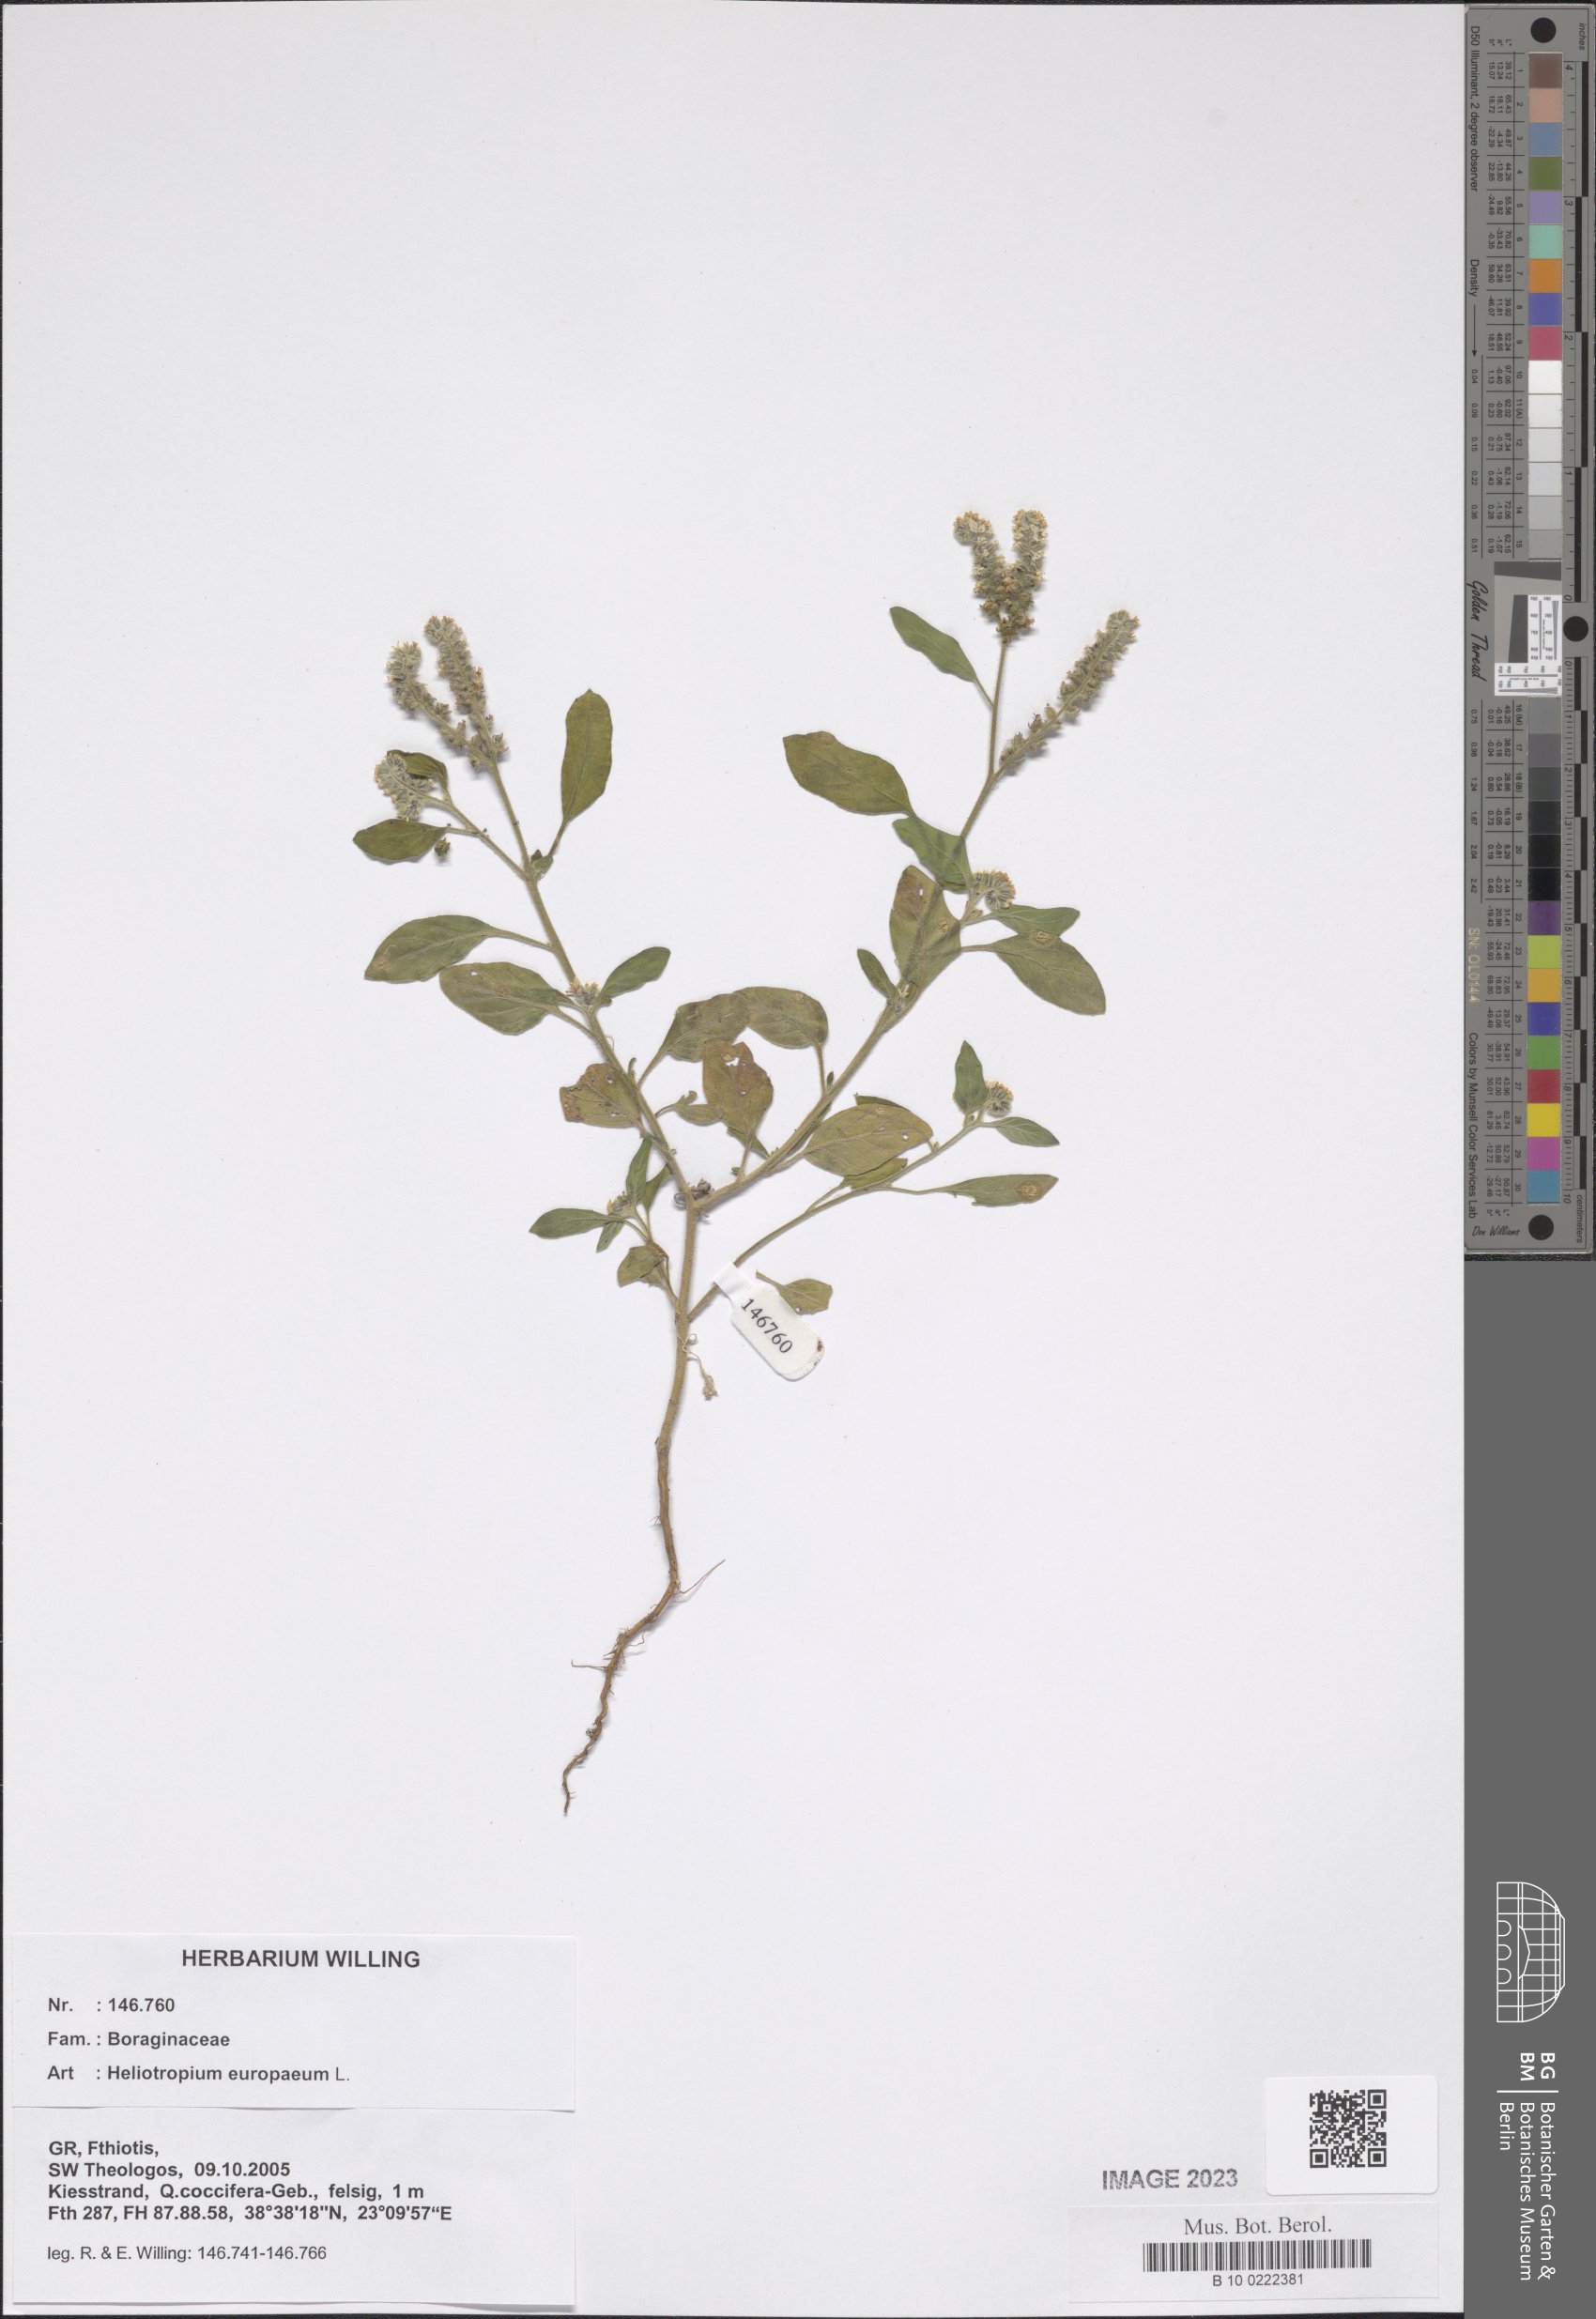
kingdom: Plantae
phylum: Tracheophyta
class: Magnoliopsida
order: Boraginales
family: Heliotropiaceae
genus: Heliotropium
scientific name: Heliotropium europaeum
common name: European heliotrope
